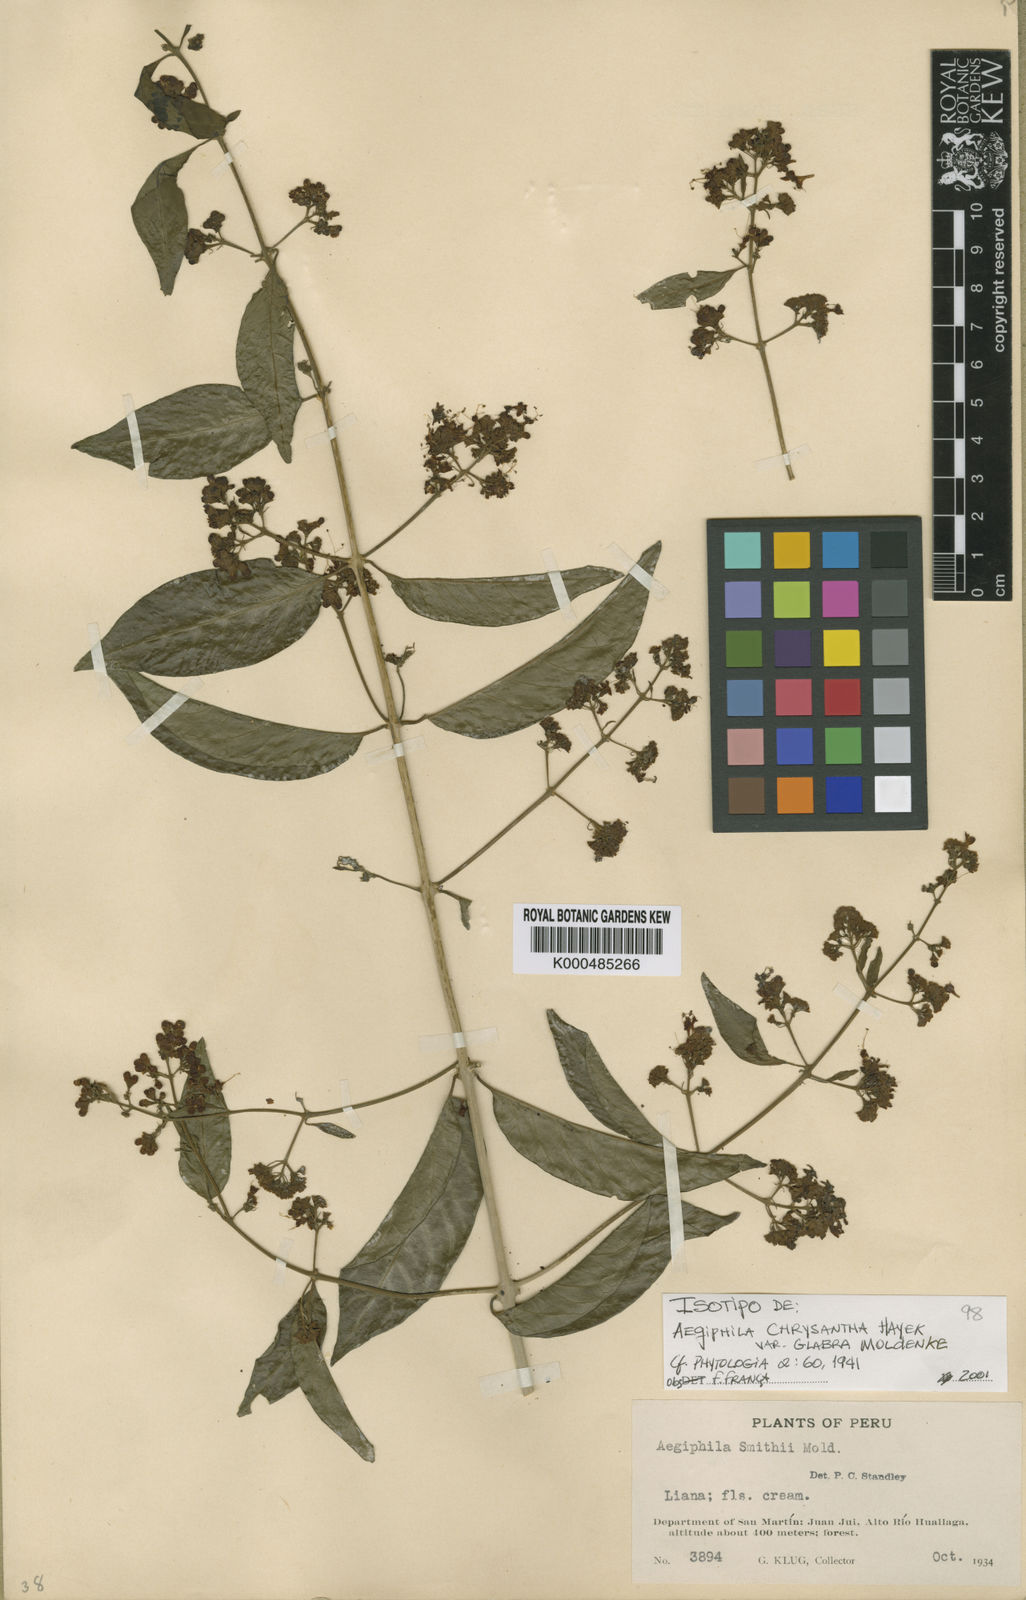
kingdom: Plantae
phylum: Tracheophyta
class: Magnoliopsida
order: Lamiales
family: Lamiaceae
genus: Aegiphila
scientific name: Aegiphila vitelliniflora
